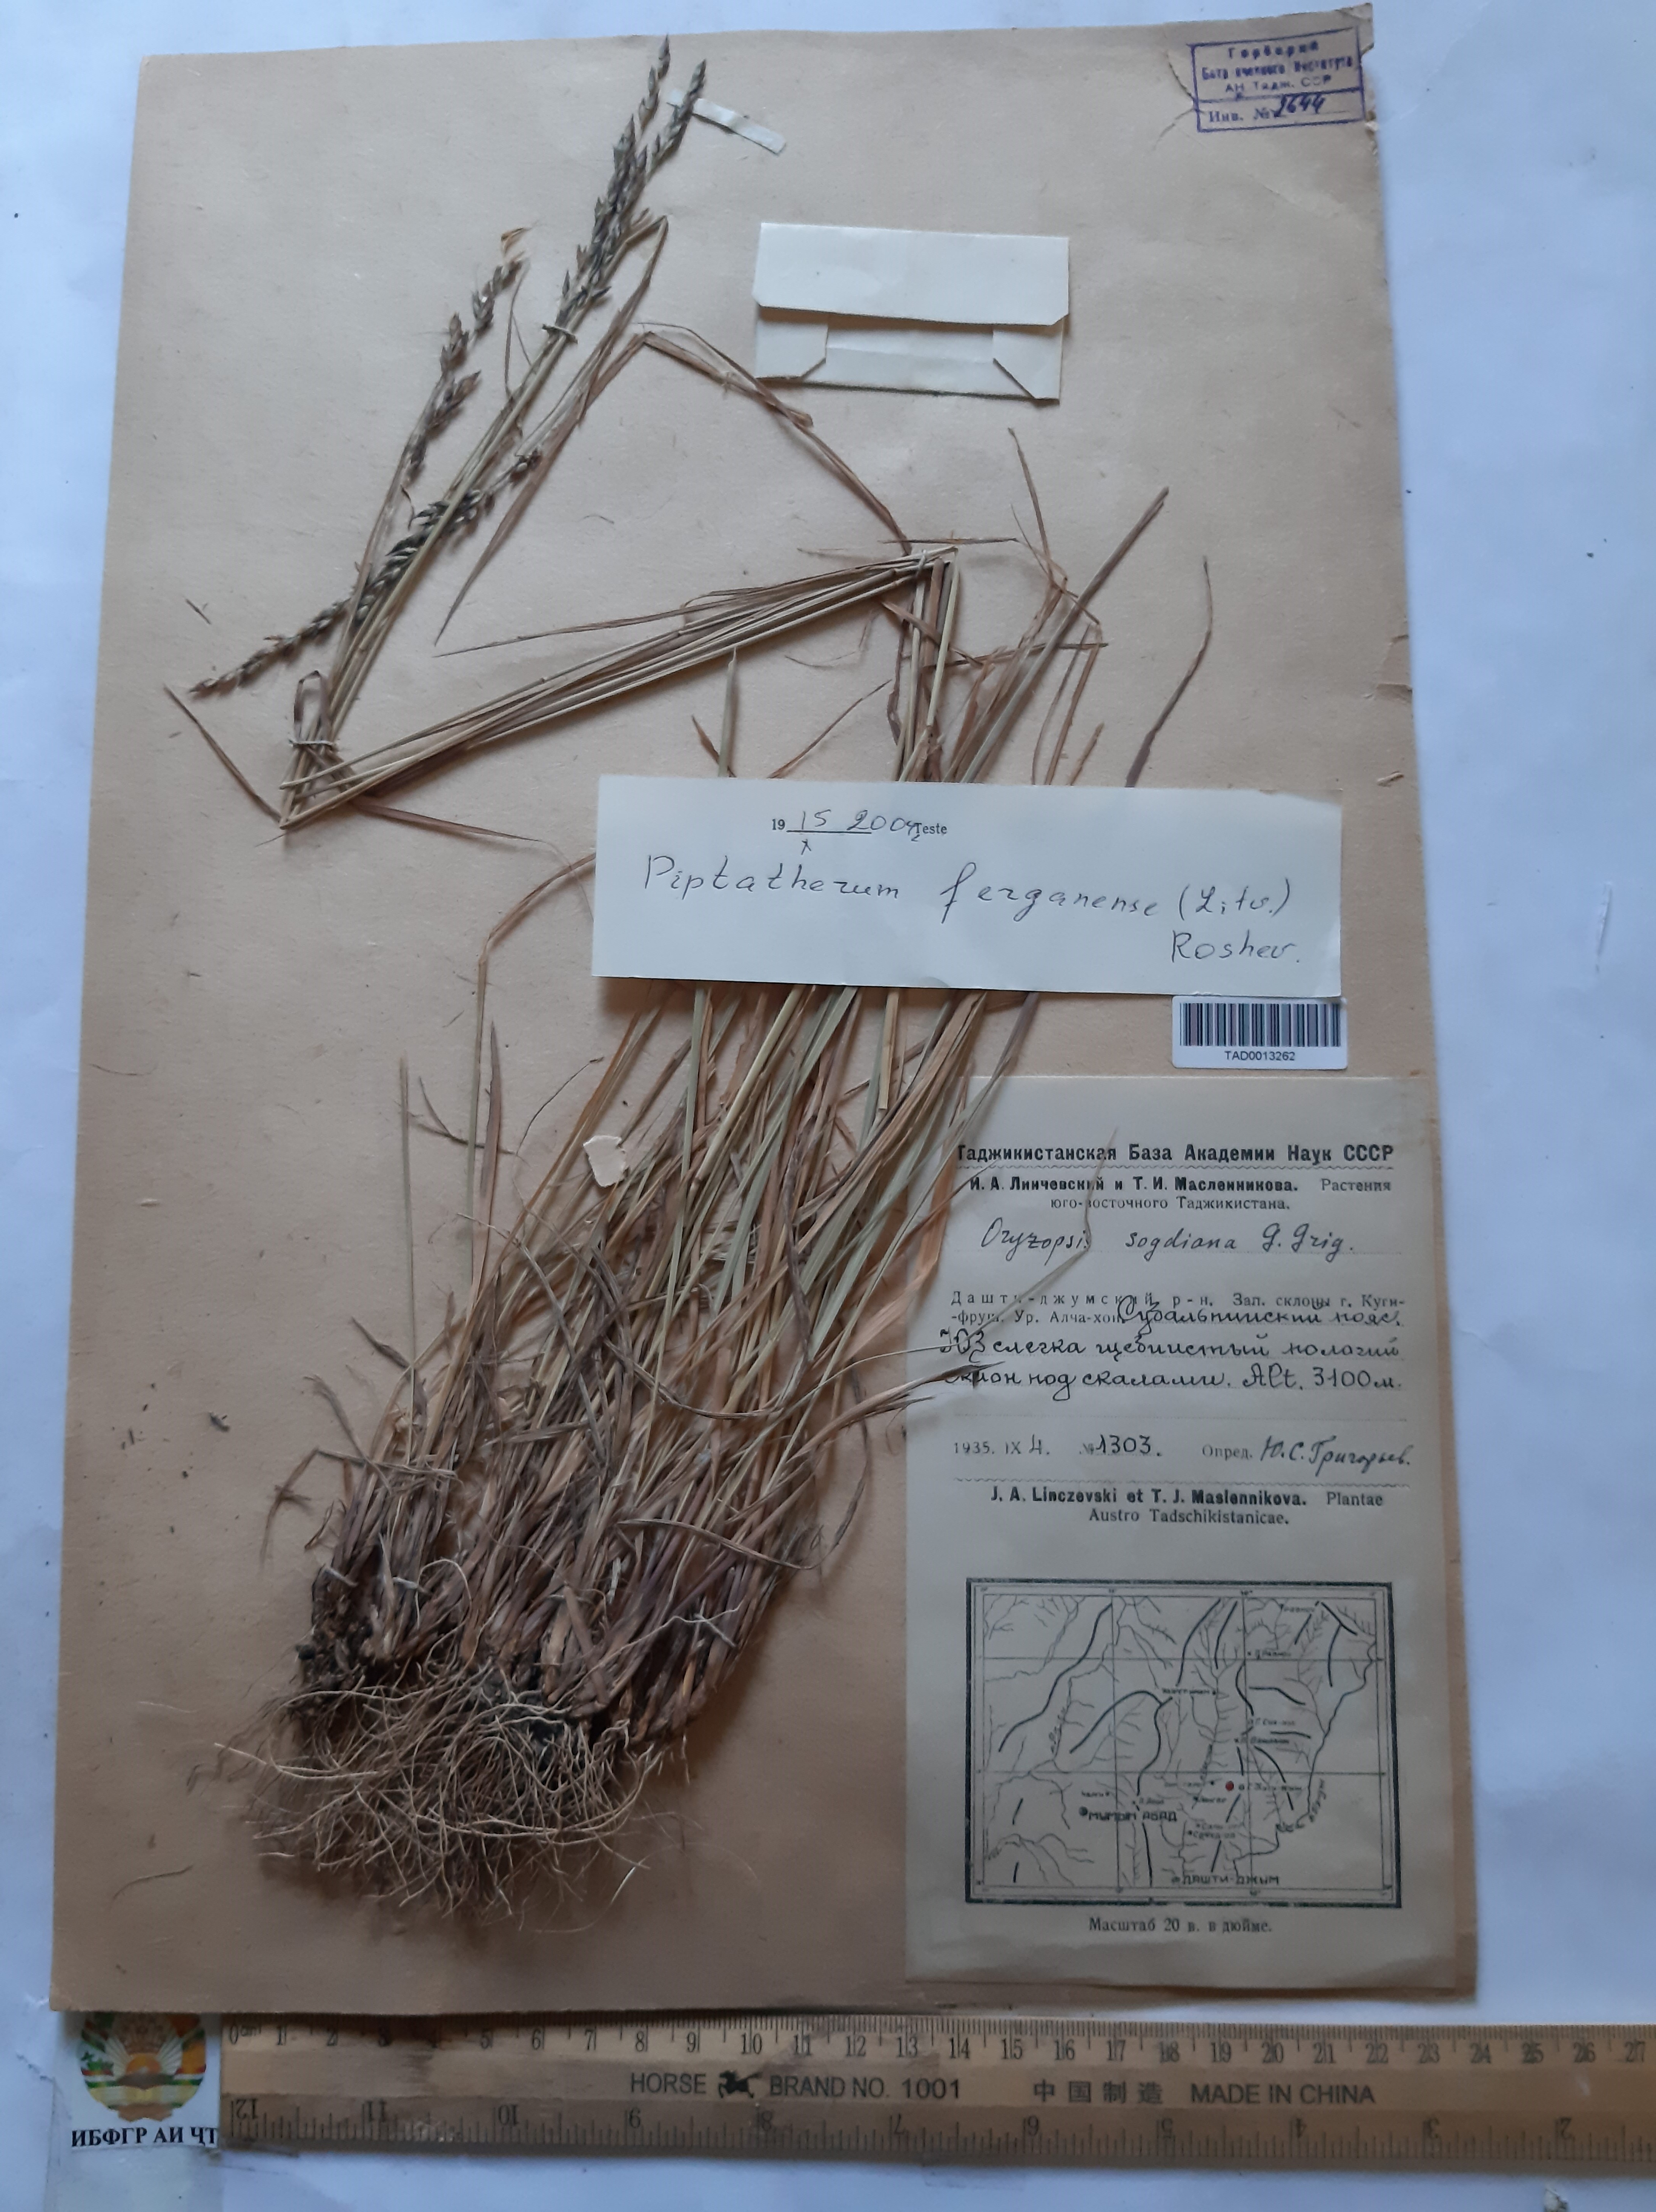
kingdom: Plantae
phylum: Tracheophyta
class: Liliopsida
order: Poales
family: Poaceae
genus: Piptatherum
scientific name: Piptatherum ferganense
